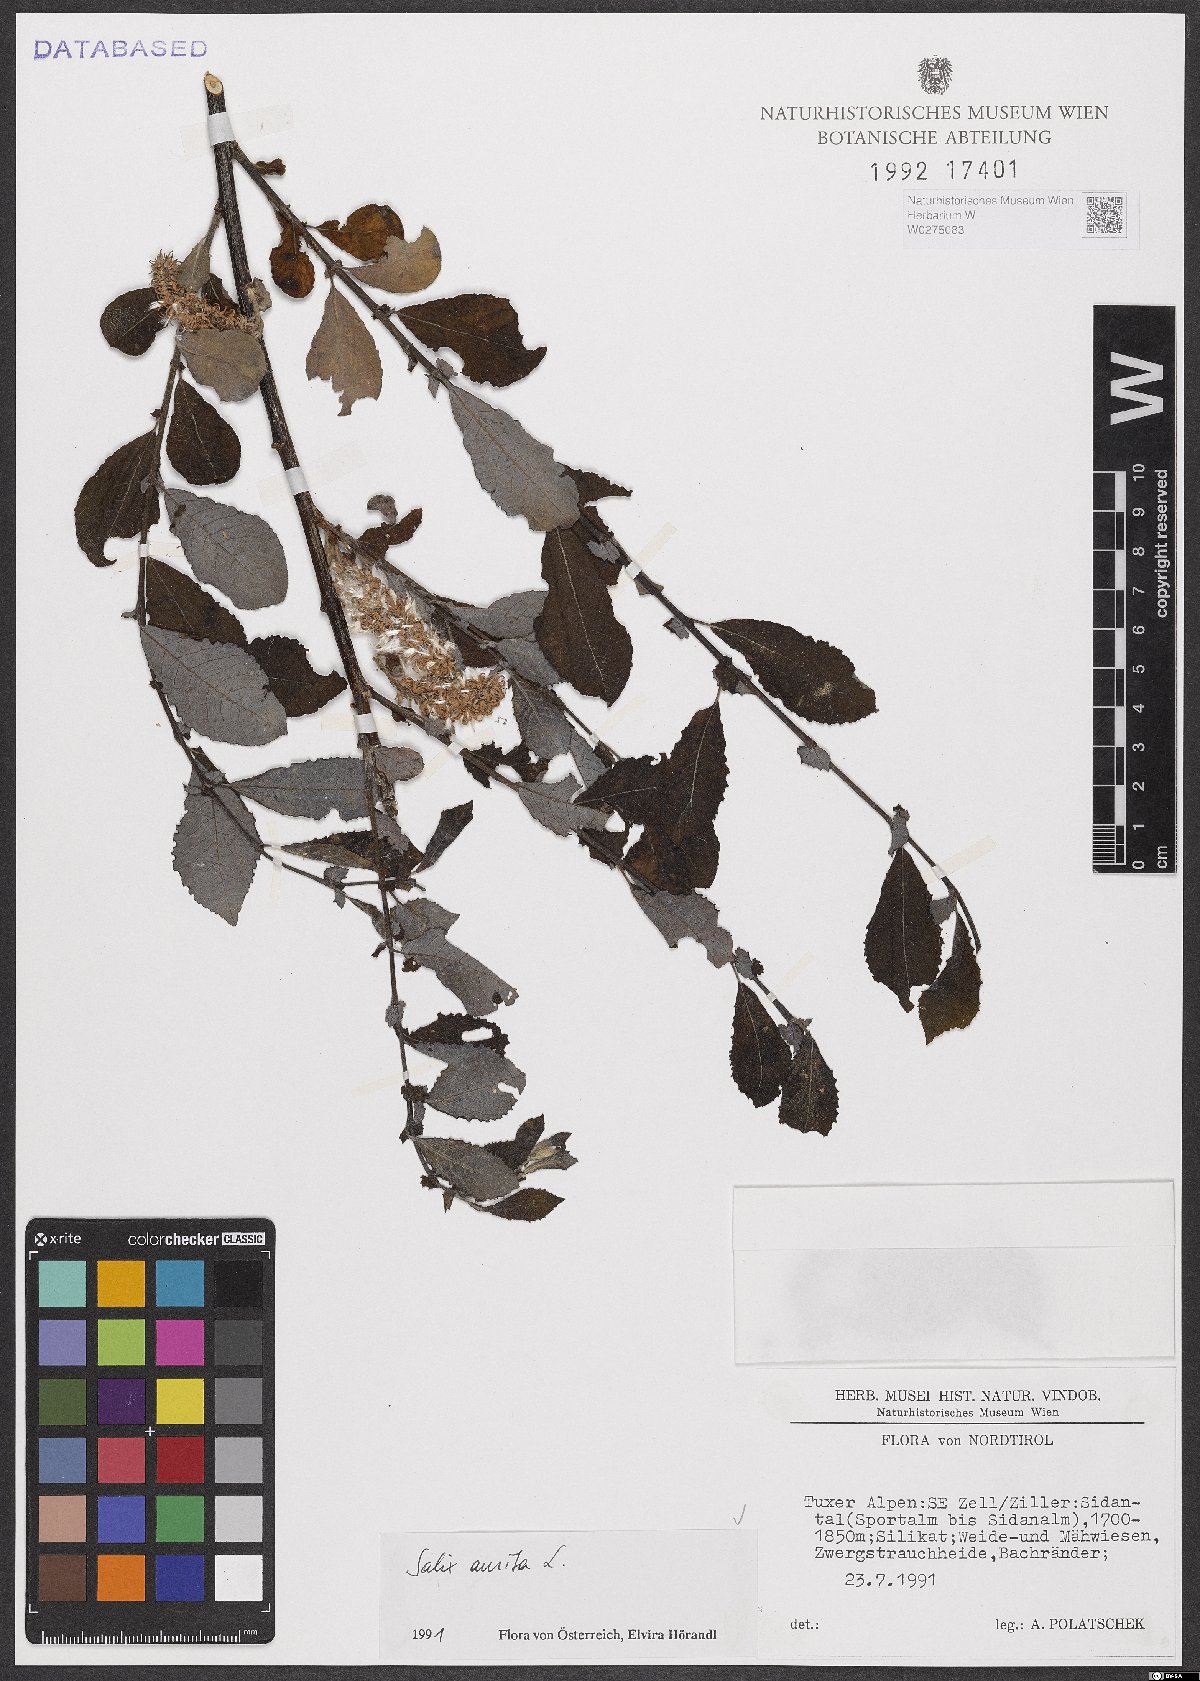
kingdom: Plantae
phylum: Tracheophyta
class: Magnoliopsida
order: Malpighiales
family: Salicaceae
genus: Salix
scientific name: Salix aurita
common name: Eared willow
